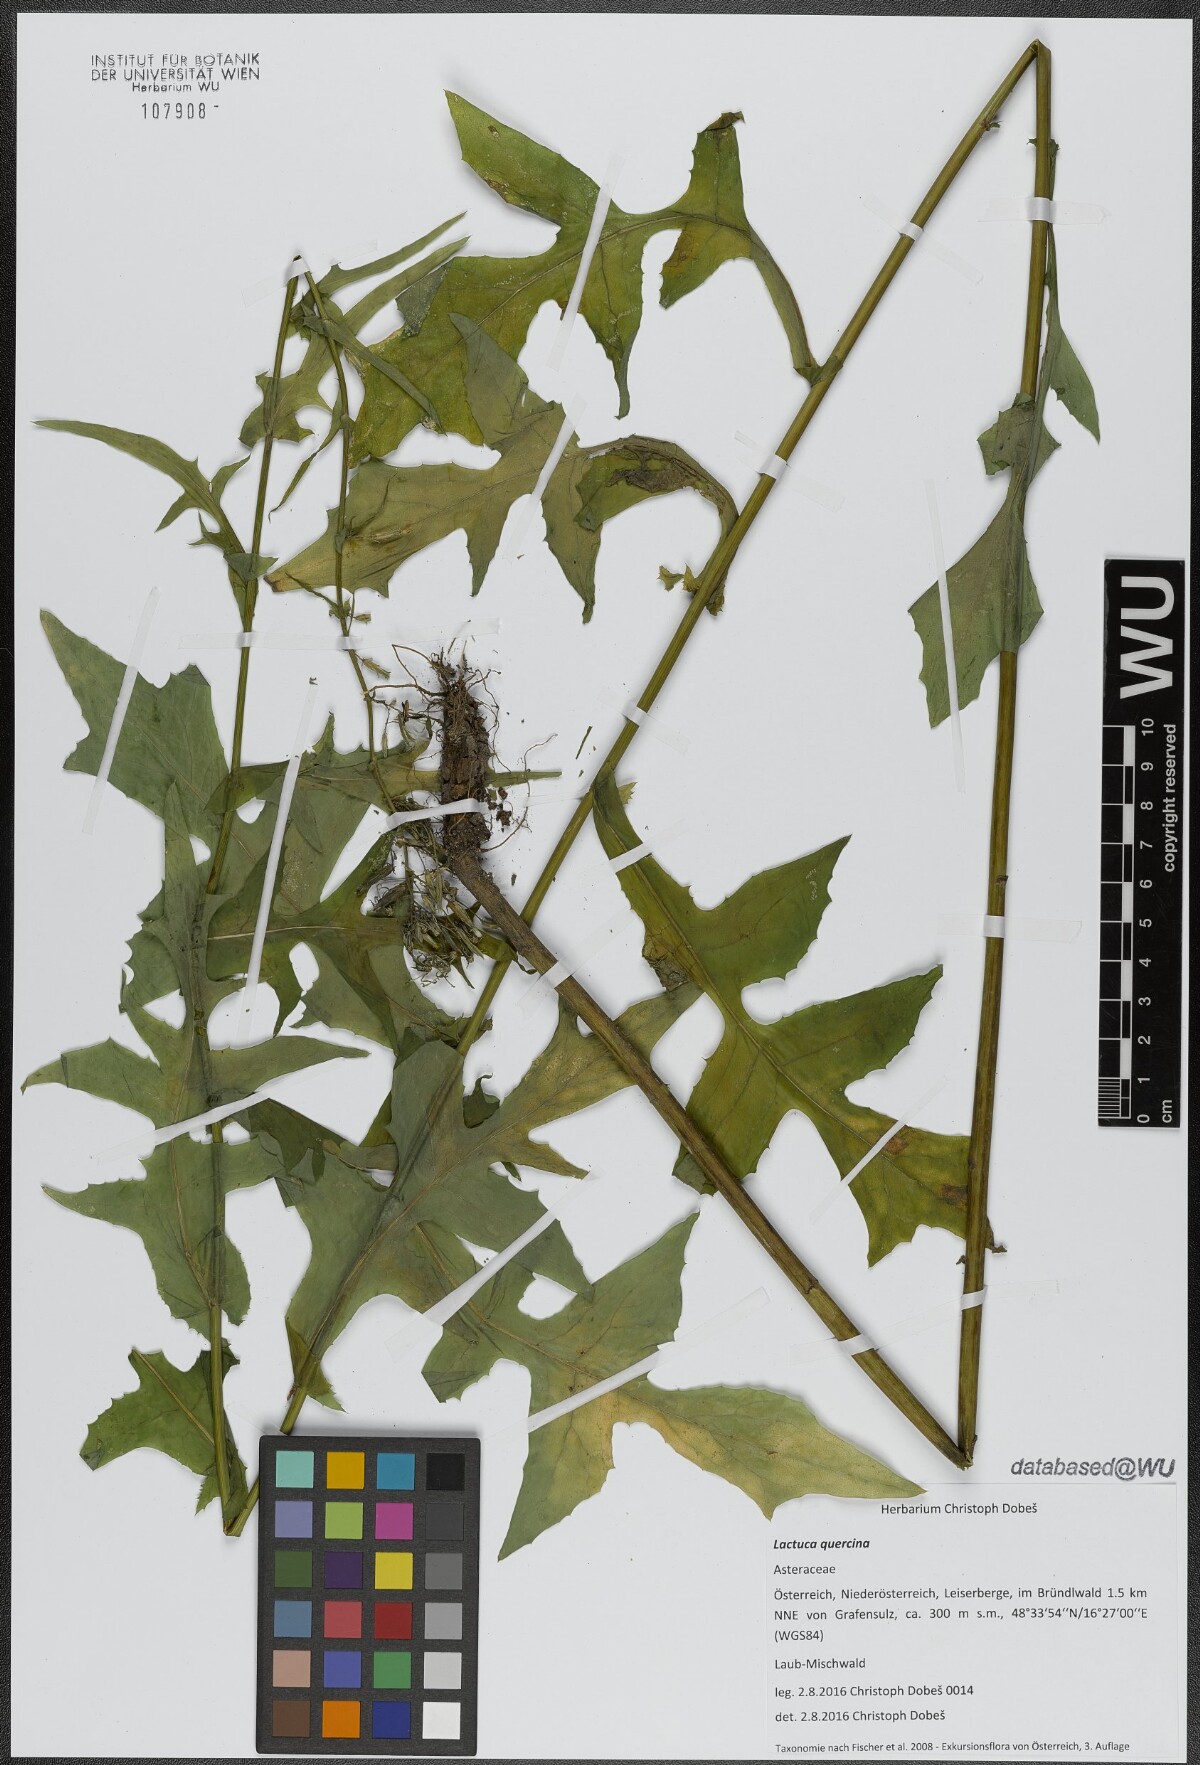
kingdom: Plantae
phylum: Tracheophyta
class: Magnoliopsida
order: Asterales
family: Asteraceae
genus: Lactuca
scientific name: Lactuca quercina
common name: Wild lettuce
